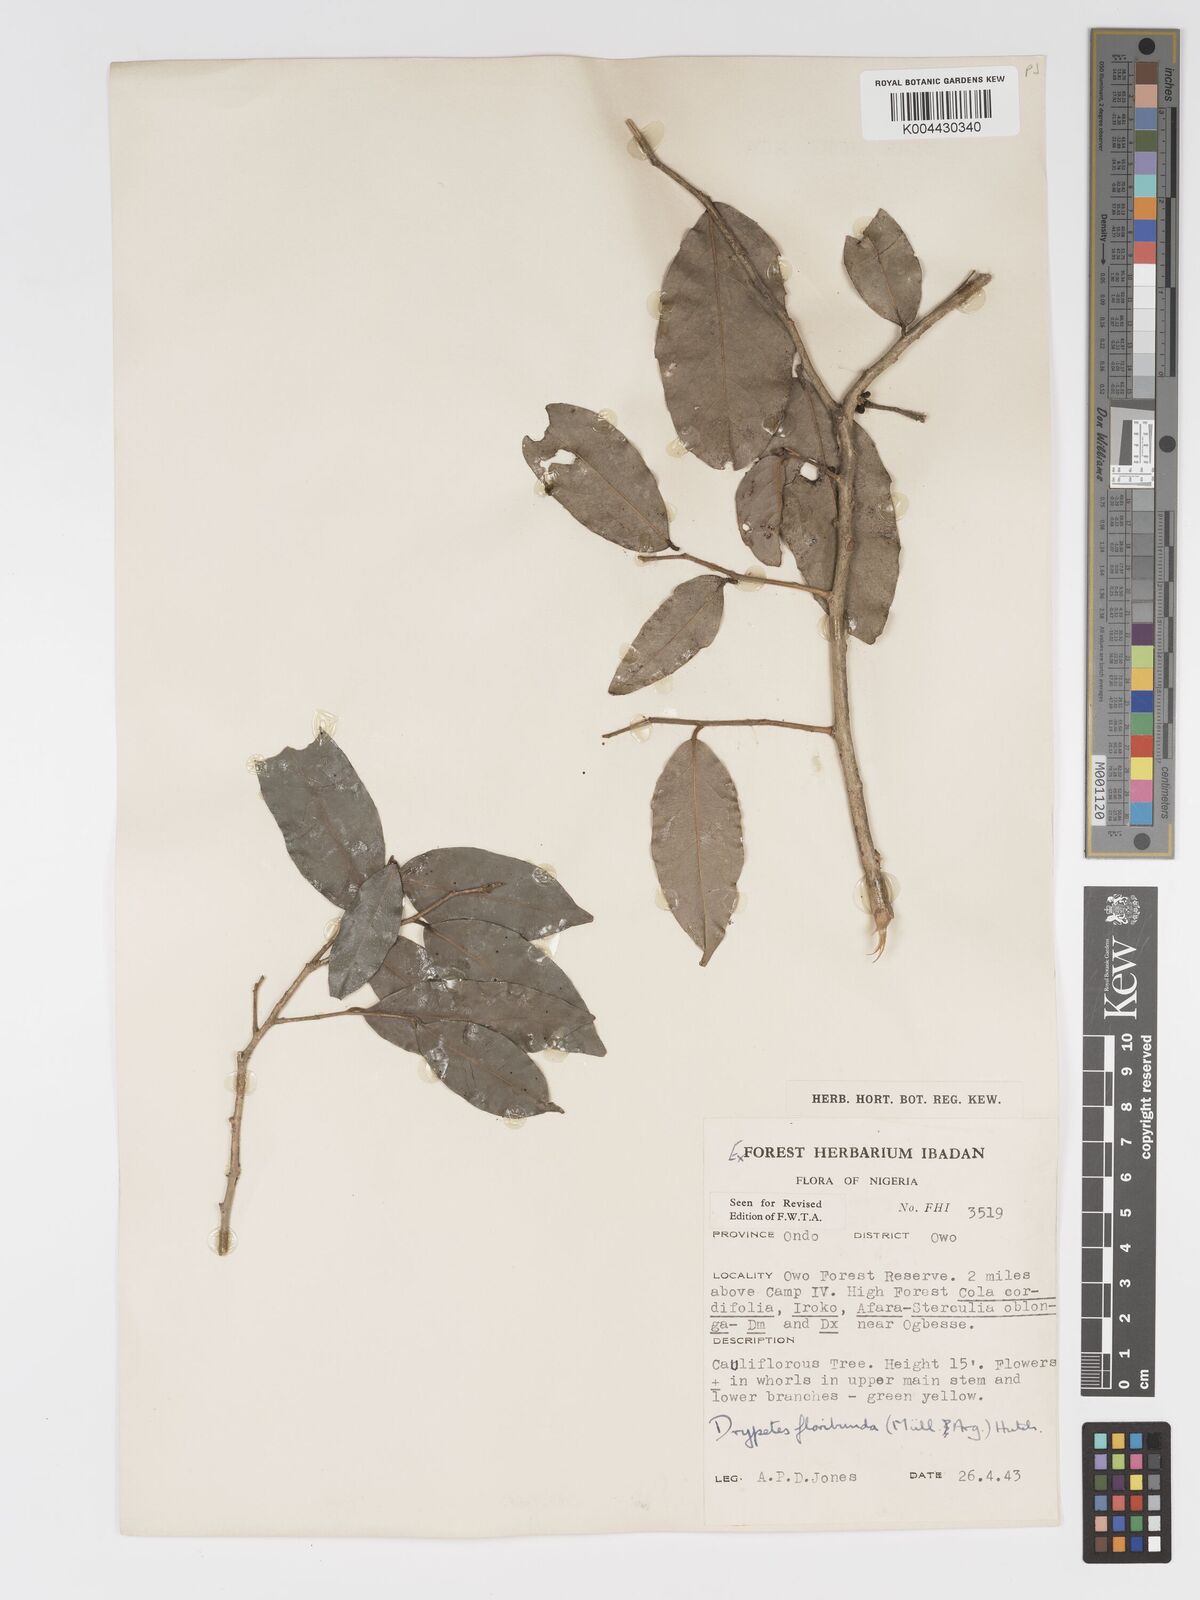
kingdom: Plantae
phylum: Tracheophyta
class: Magnoliopsida
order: Malpighiales
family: Putranjivaceae
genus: Drypetes
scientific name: Drypetes floribunda
